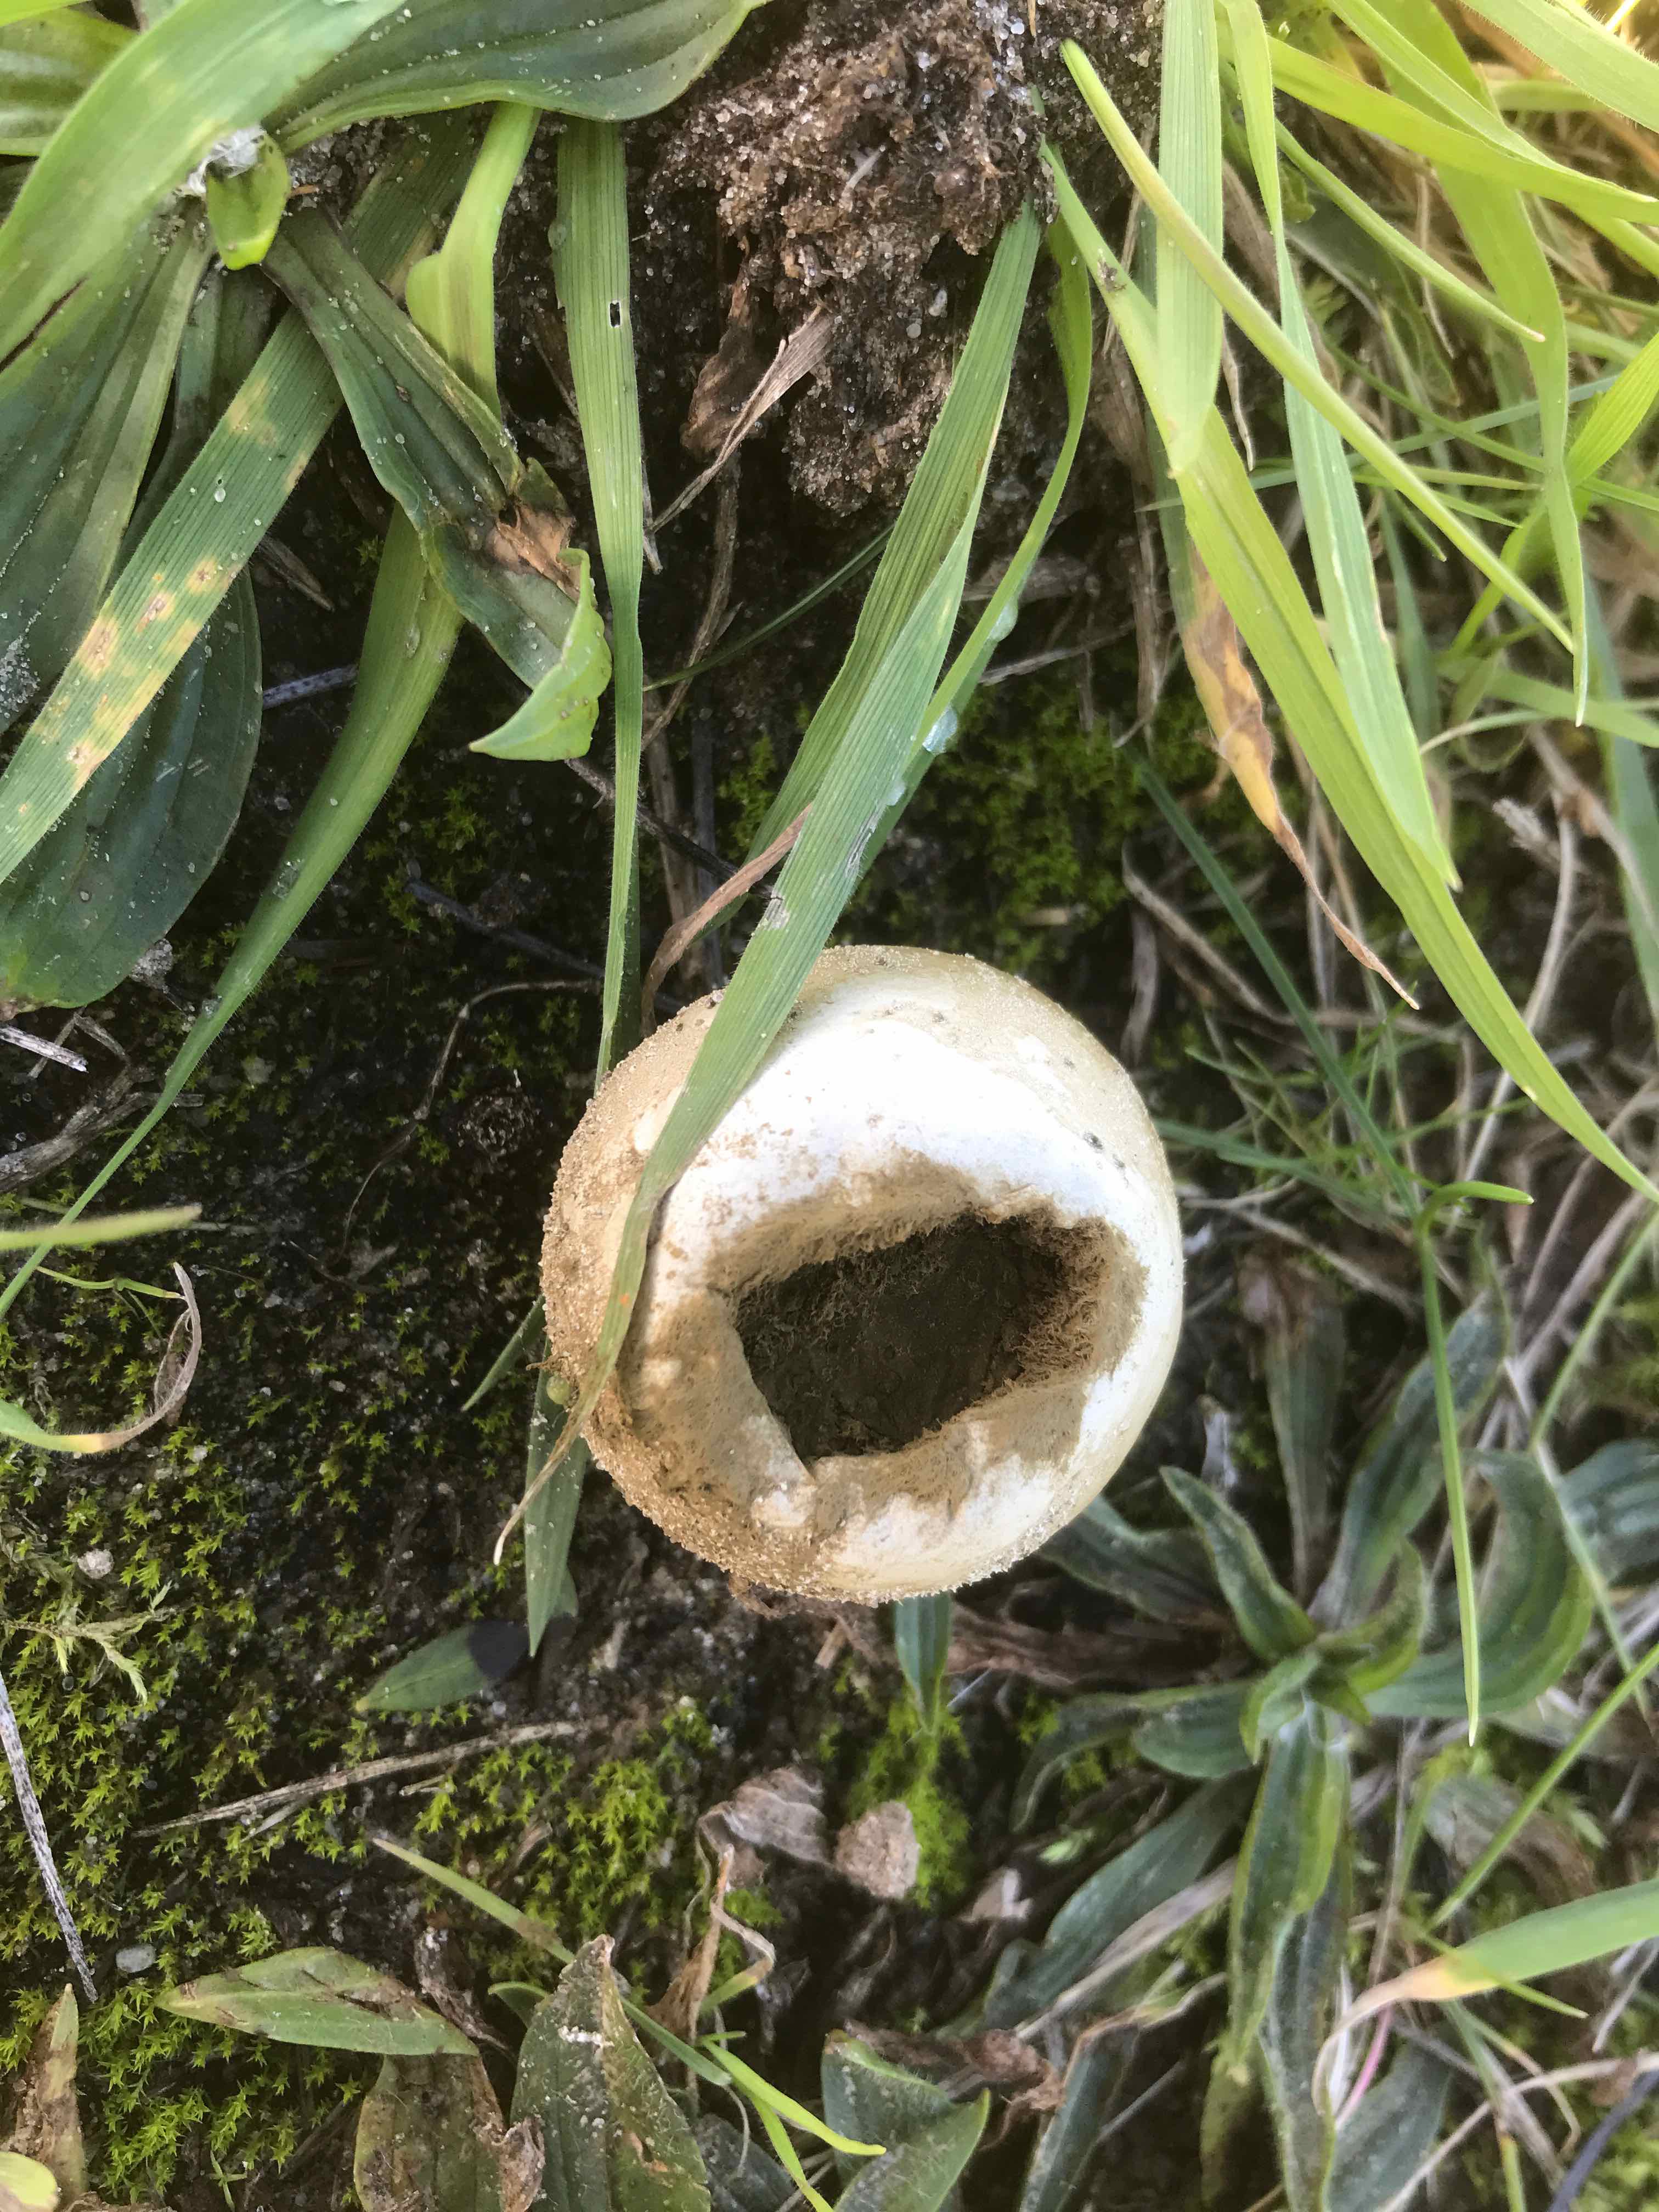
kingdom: Fungi
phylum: Basidiomycota
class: Agaricomycetes
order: Agaricales
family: Agaricaceae
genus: Lycoperdon
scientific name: Lycoperdon
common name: støvbold
